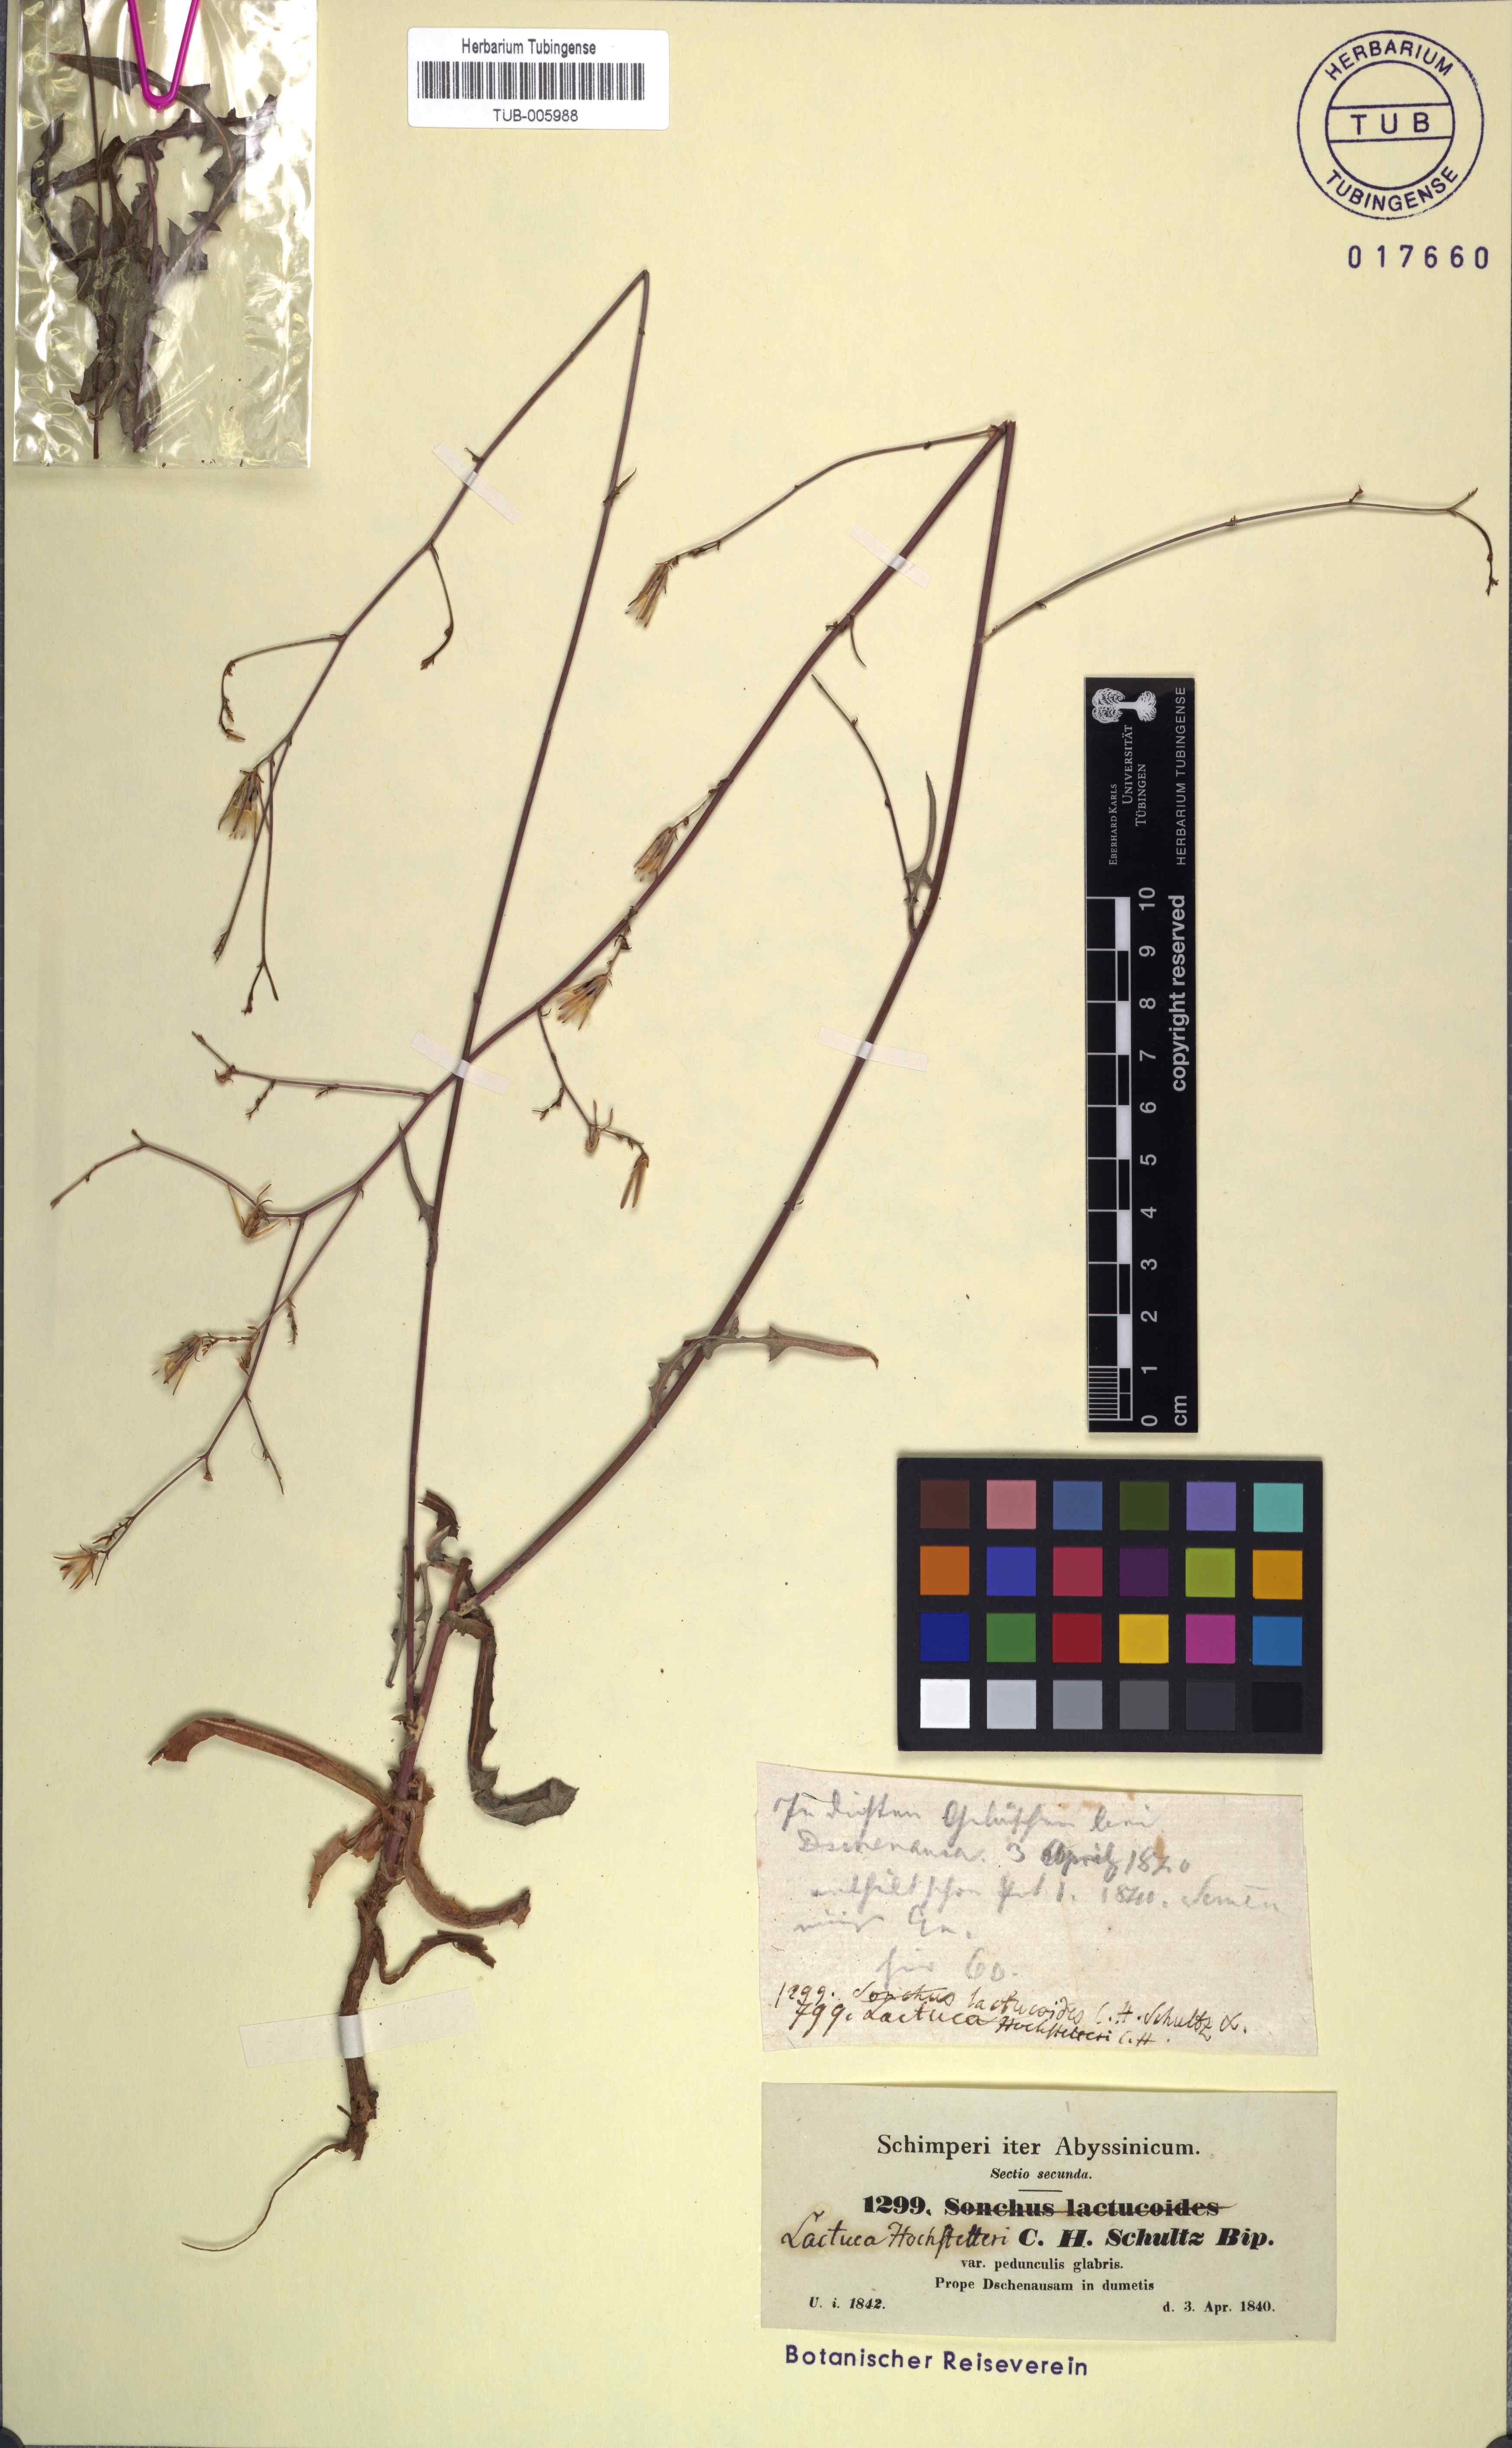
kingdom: Plantae
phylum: Tracheophyta
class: Magnoliopsida
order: Asterales
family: Asteraceae
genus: Lactuca
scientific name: Lactuca inermis
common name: Wild lettuce
